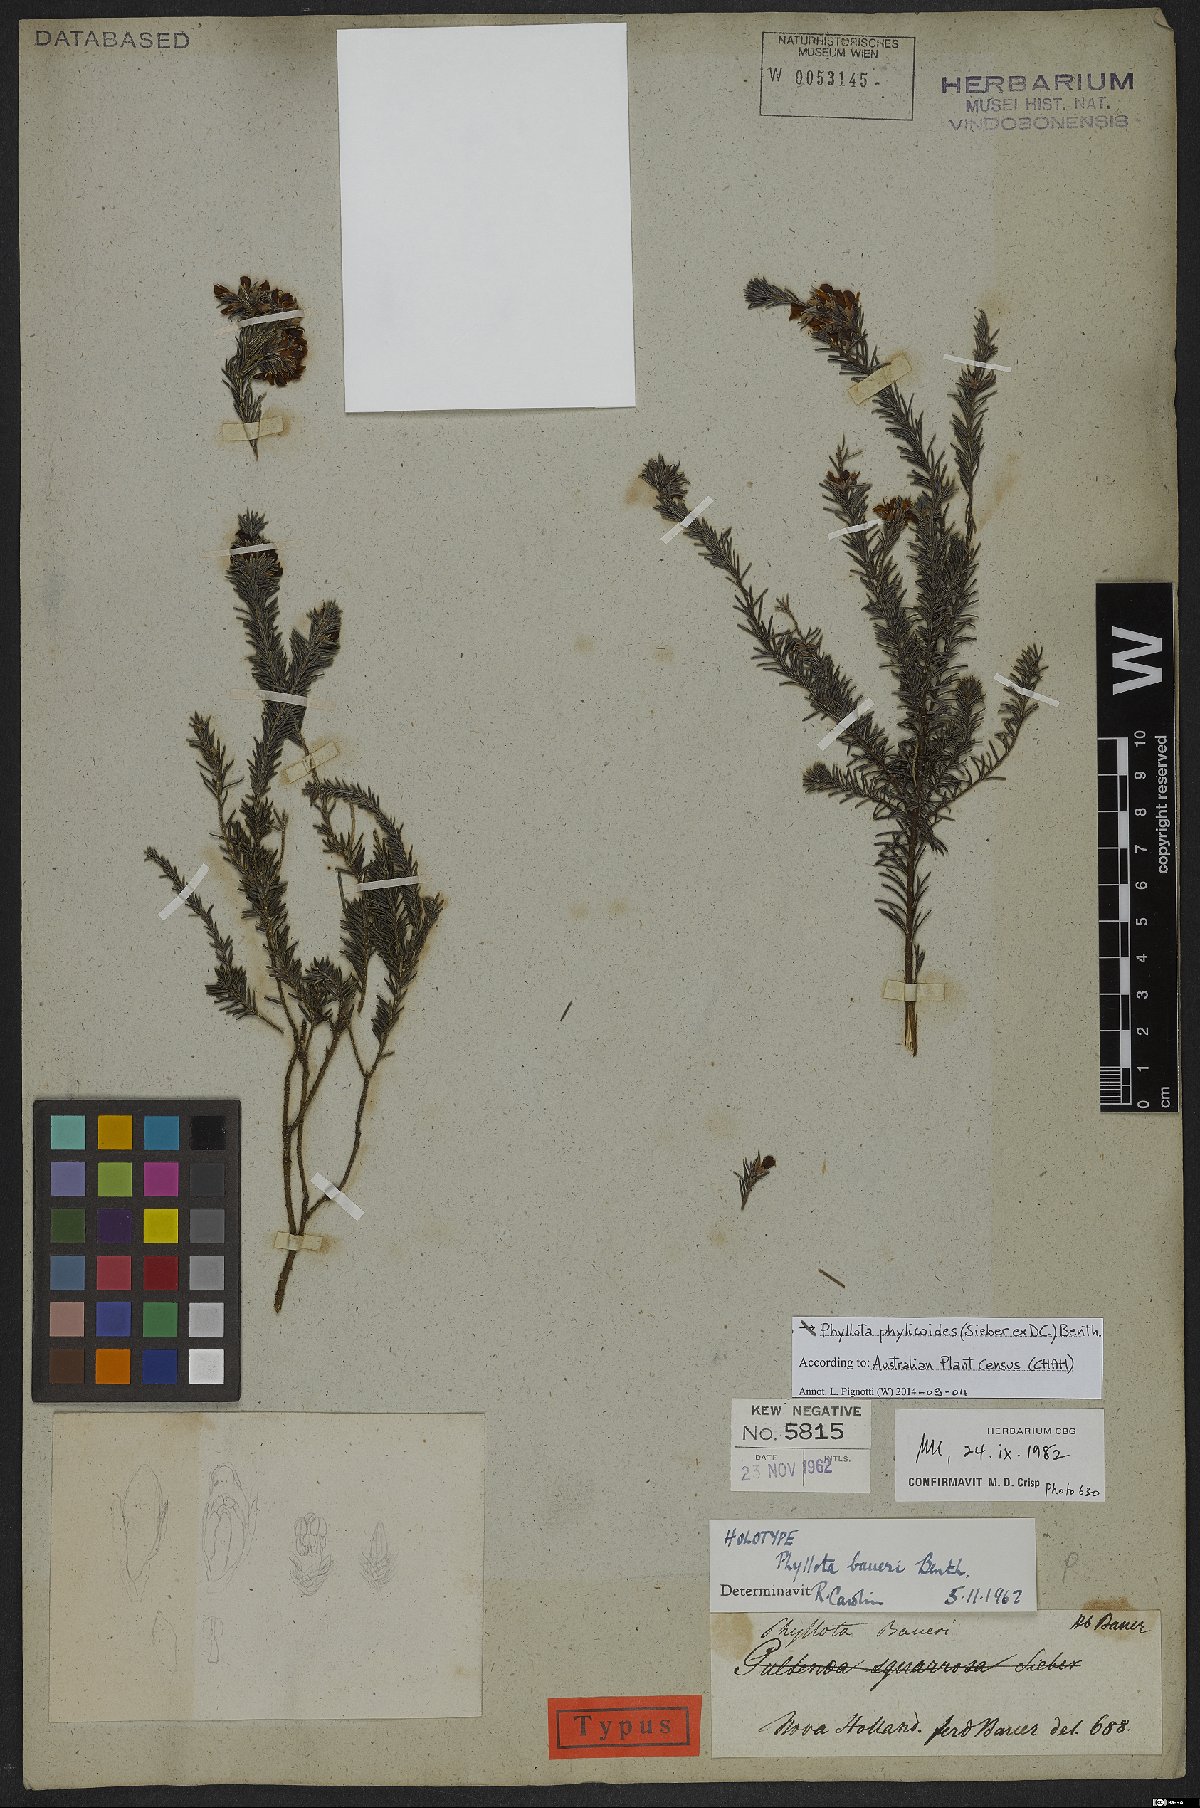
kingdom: Plantae
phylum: Tracheophyta
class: Magnoliopsida
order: Fabales
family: Fabaceae
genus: Phyllota
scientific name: Phyllota phylicoides
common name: Heath phyllota
